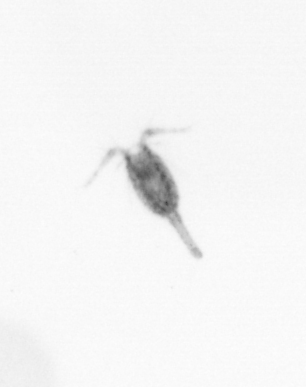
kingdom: Animalia
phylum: Arthropoda
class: Copepoda
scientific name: Copepoda
